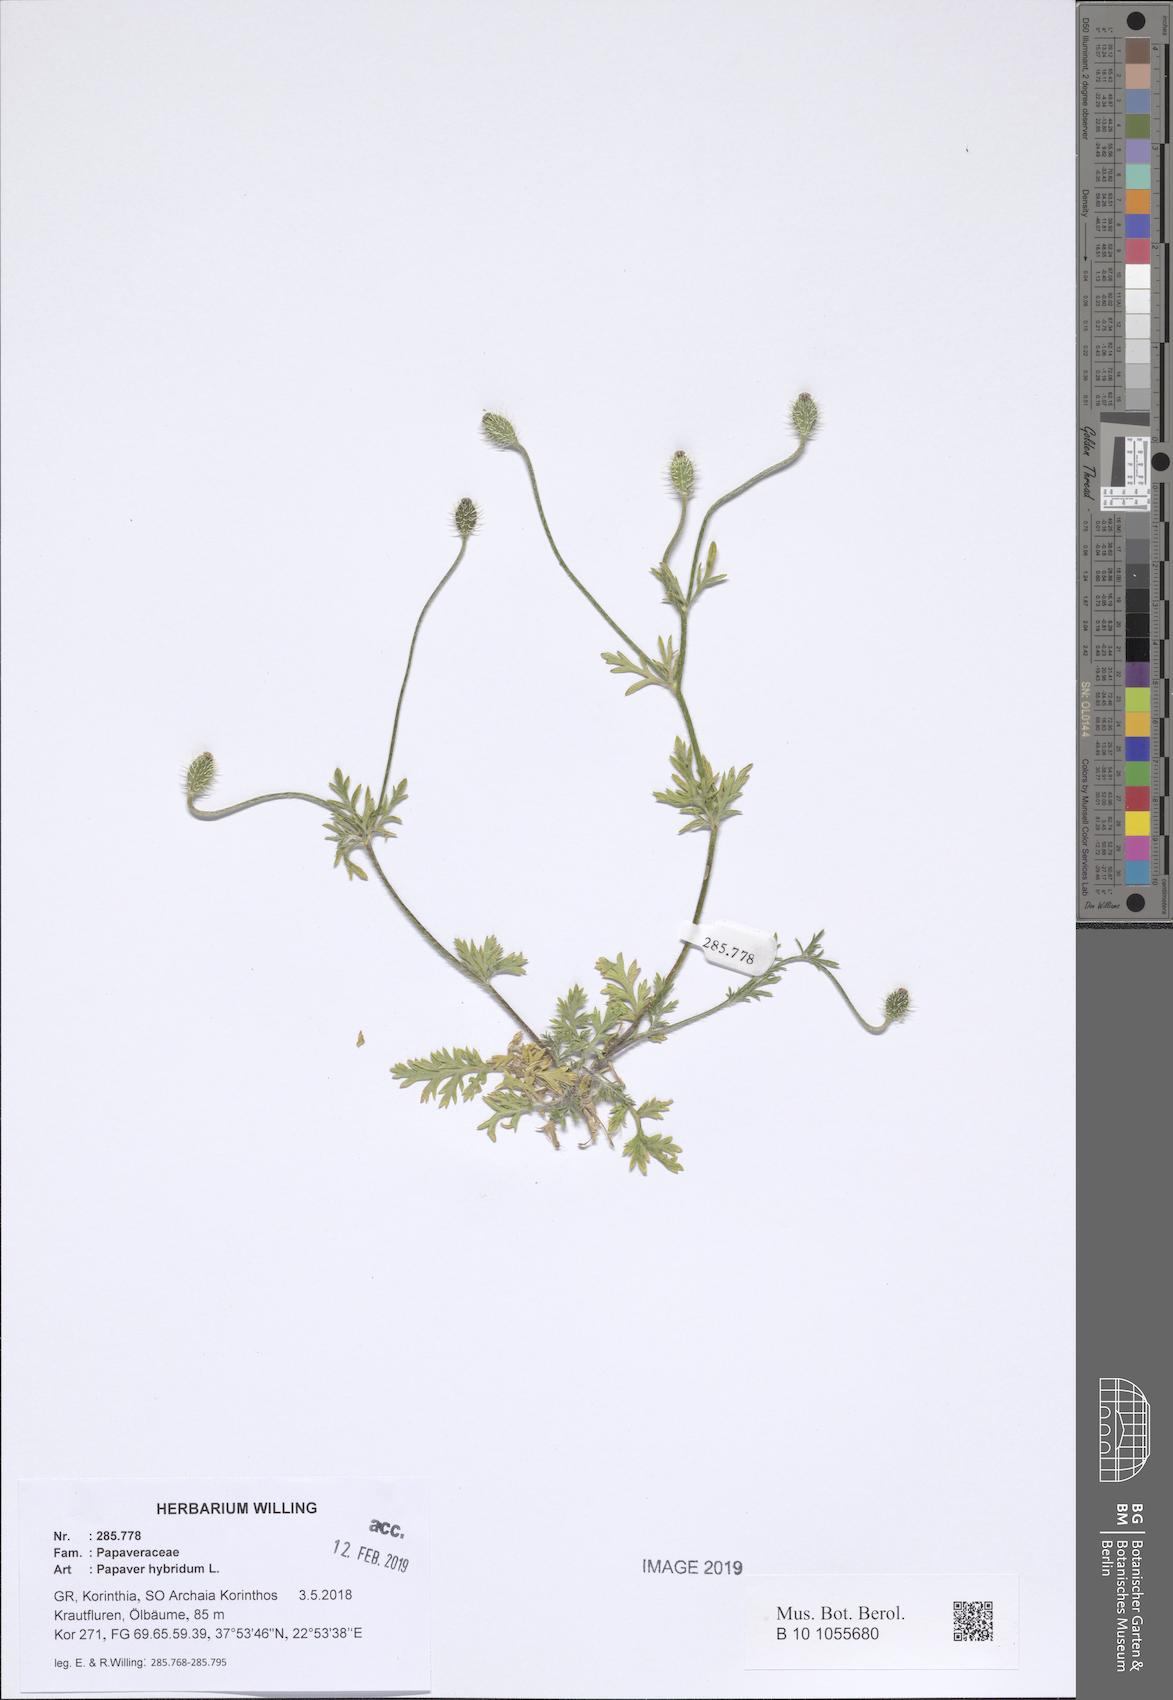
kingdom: Plantae
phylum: Tracheophyta
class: Magnoliopsida
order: Ranunculales
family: Papaveraceae
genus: Roemeria
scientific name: Roemeria hispida
